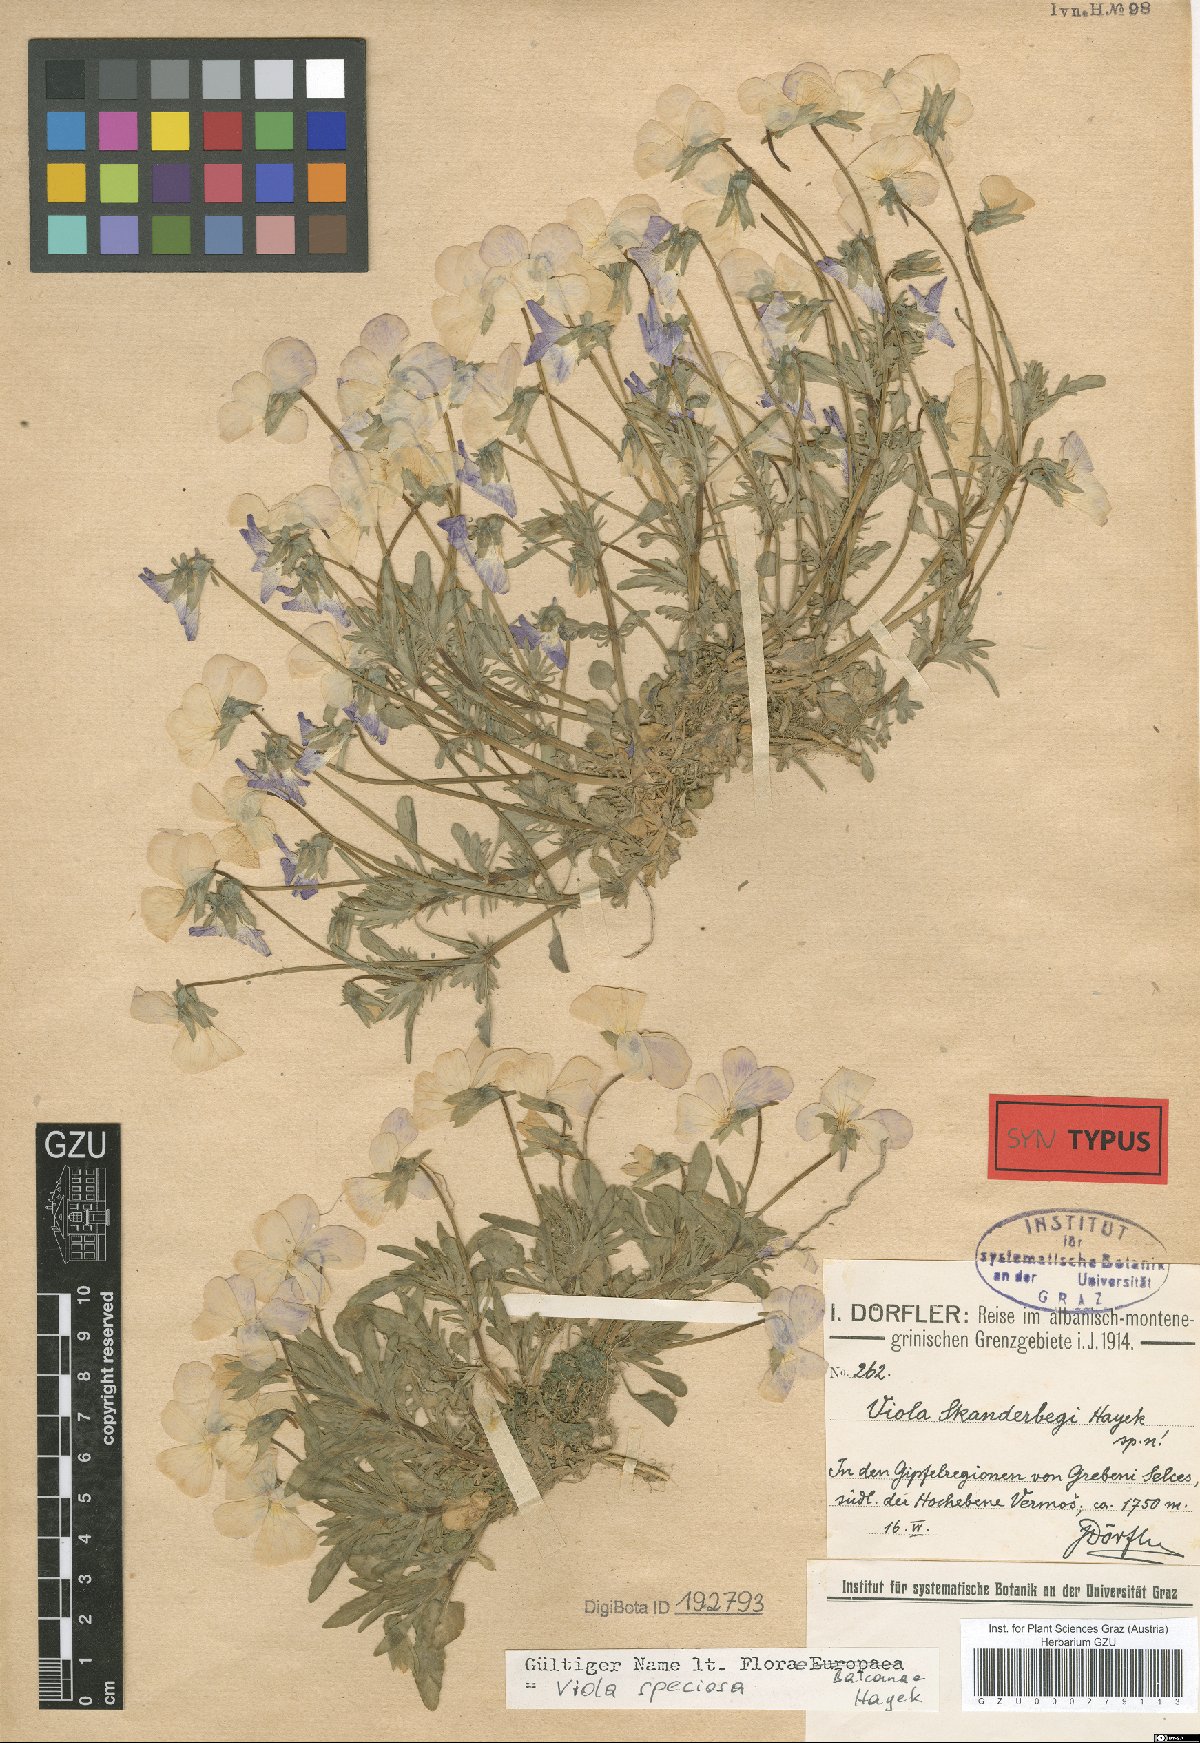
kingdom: Plantae
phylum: Tracheophyta
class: Magnoliopsida
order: Malpighiales
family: Violaceae
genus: Viola
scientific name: Viola skanderbegii
